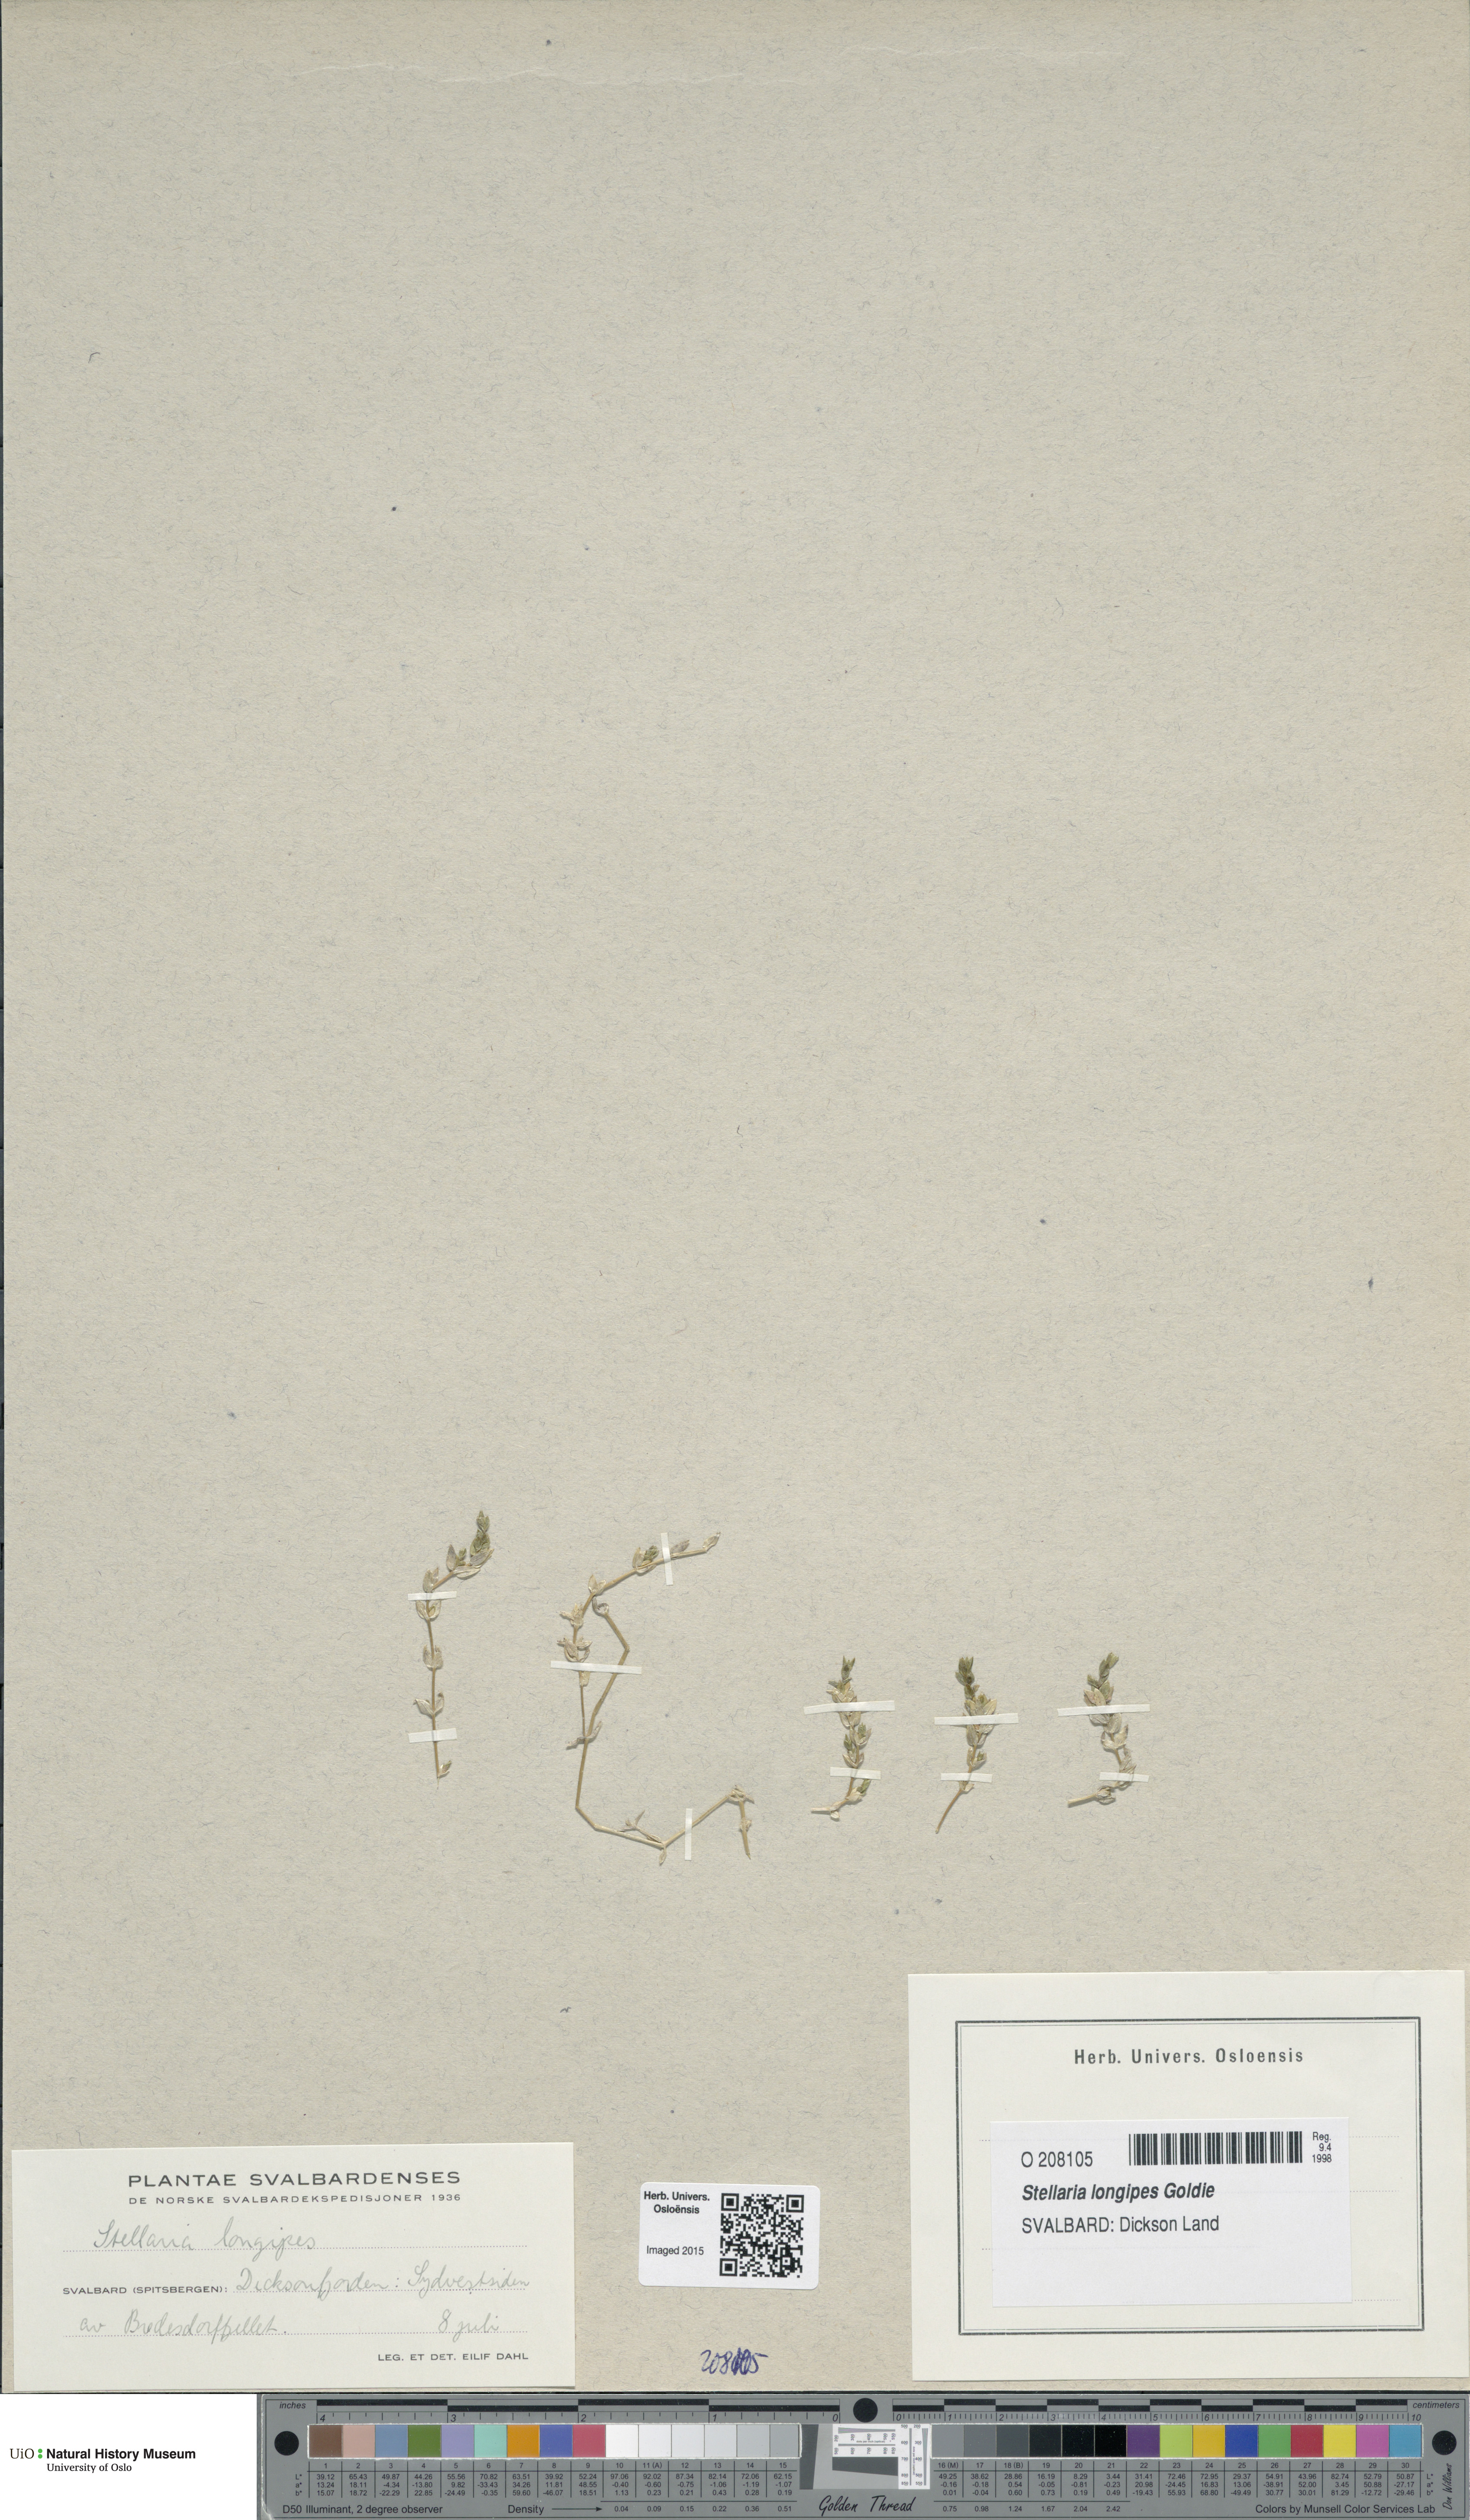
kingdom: Plantae
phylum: Tracheophyta
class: Magnoliopsida
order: Caryophyllales
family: Caryophyllaceae
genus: Stellaria
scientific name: Stellaria longipes
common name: Goldie's starwort
